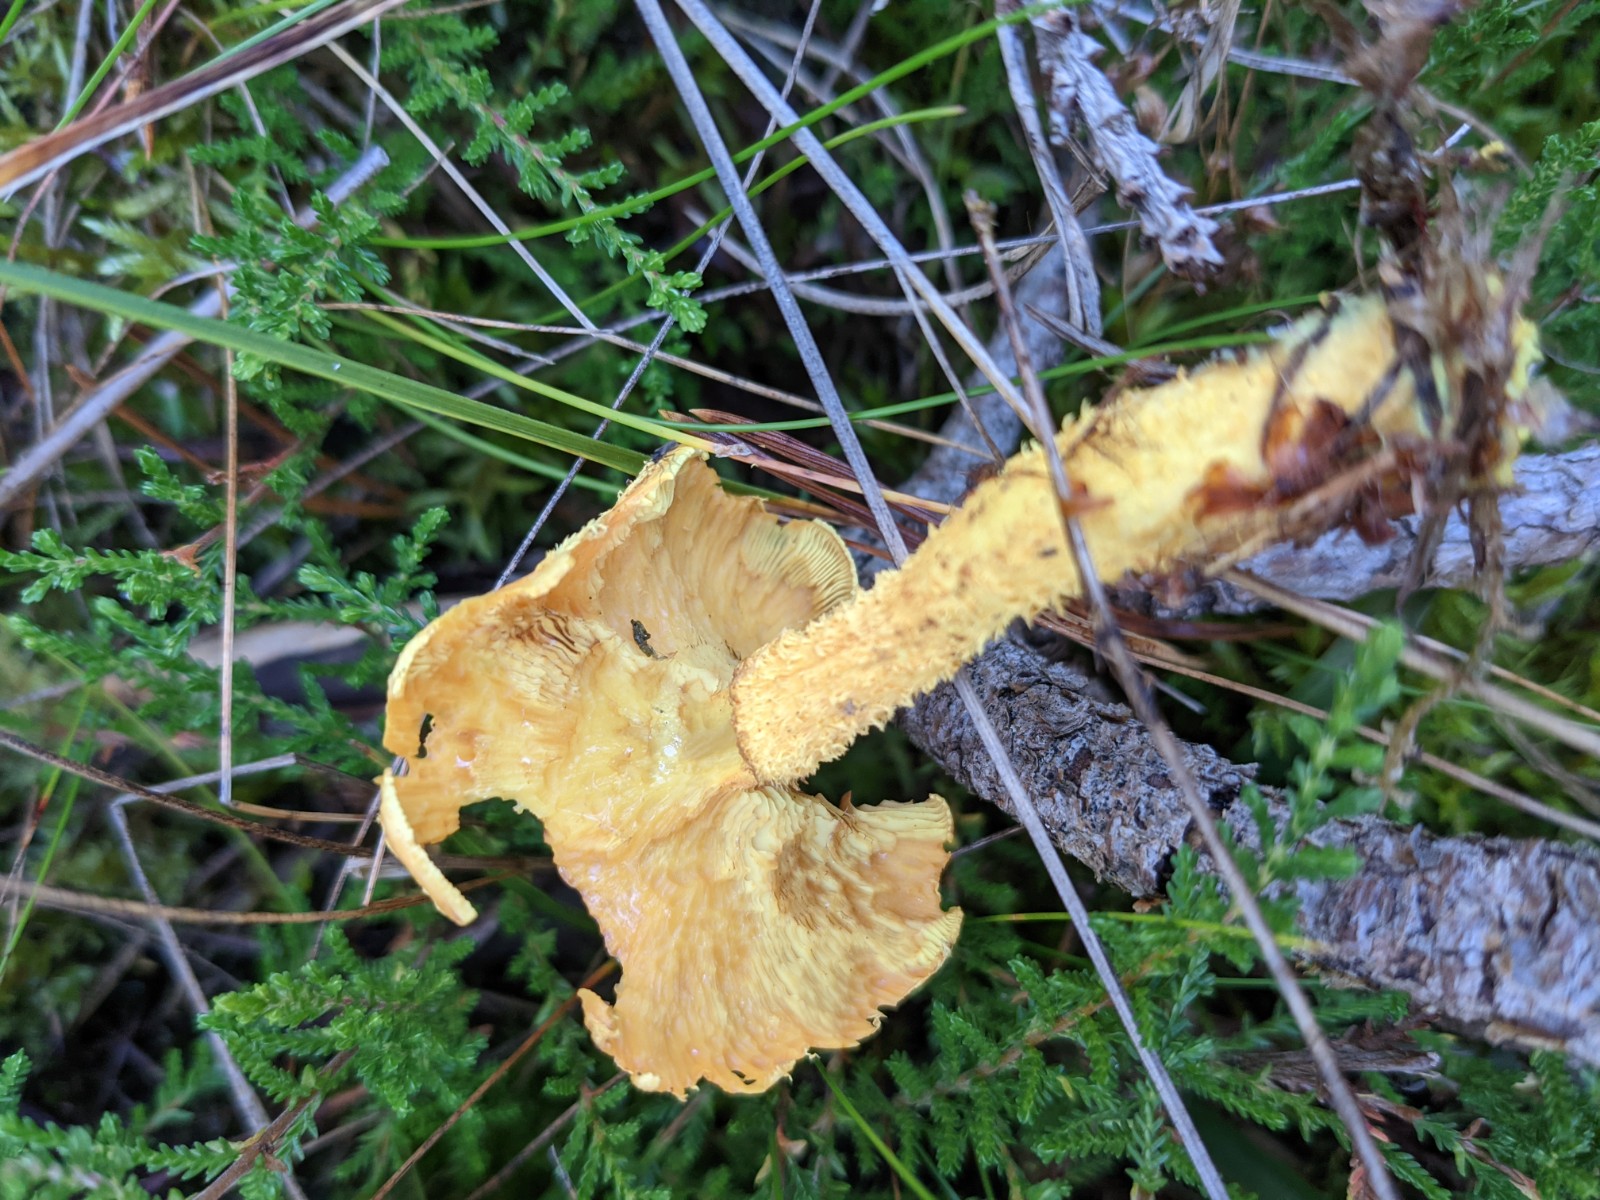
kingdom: Fungi
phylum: Basidiomycota
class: Agaricomycetes
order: Agaricales
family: Strophariaceae
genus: Pholiota
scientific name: Pholiota flammans
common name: flamme-skælhat
